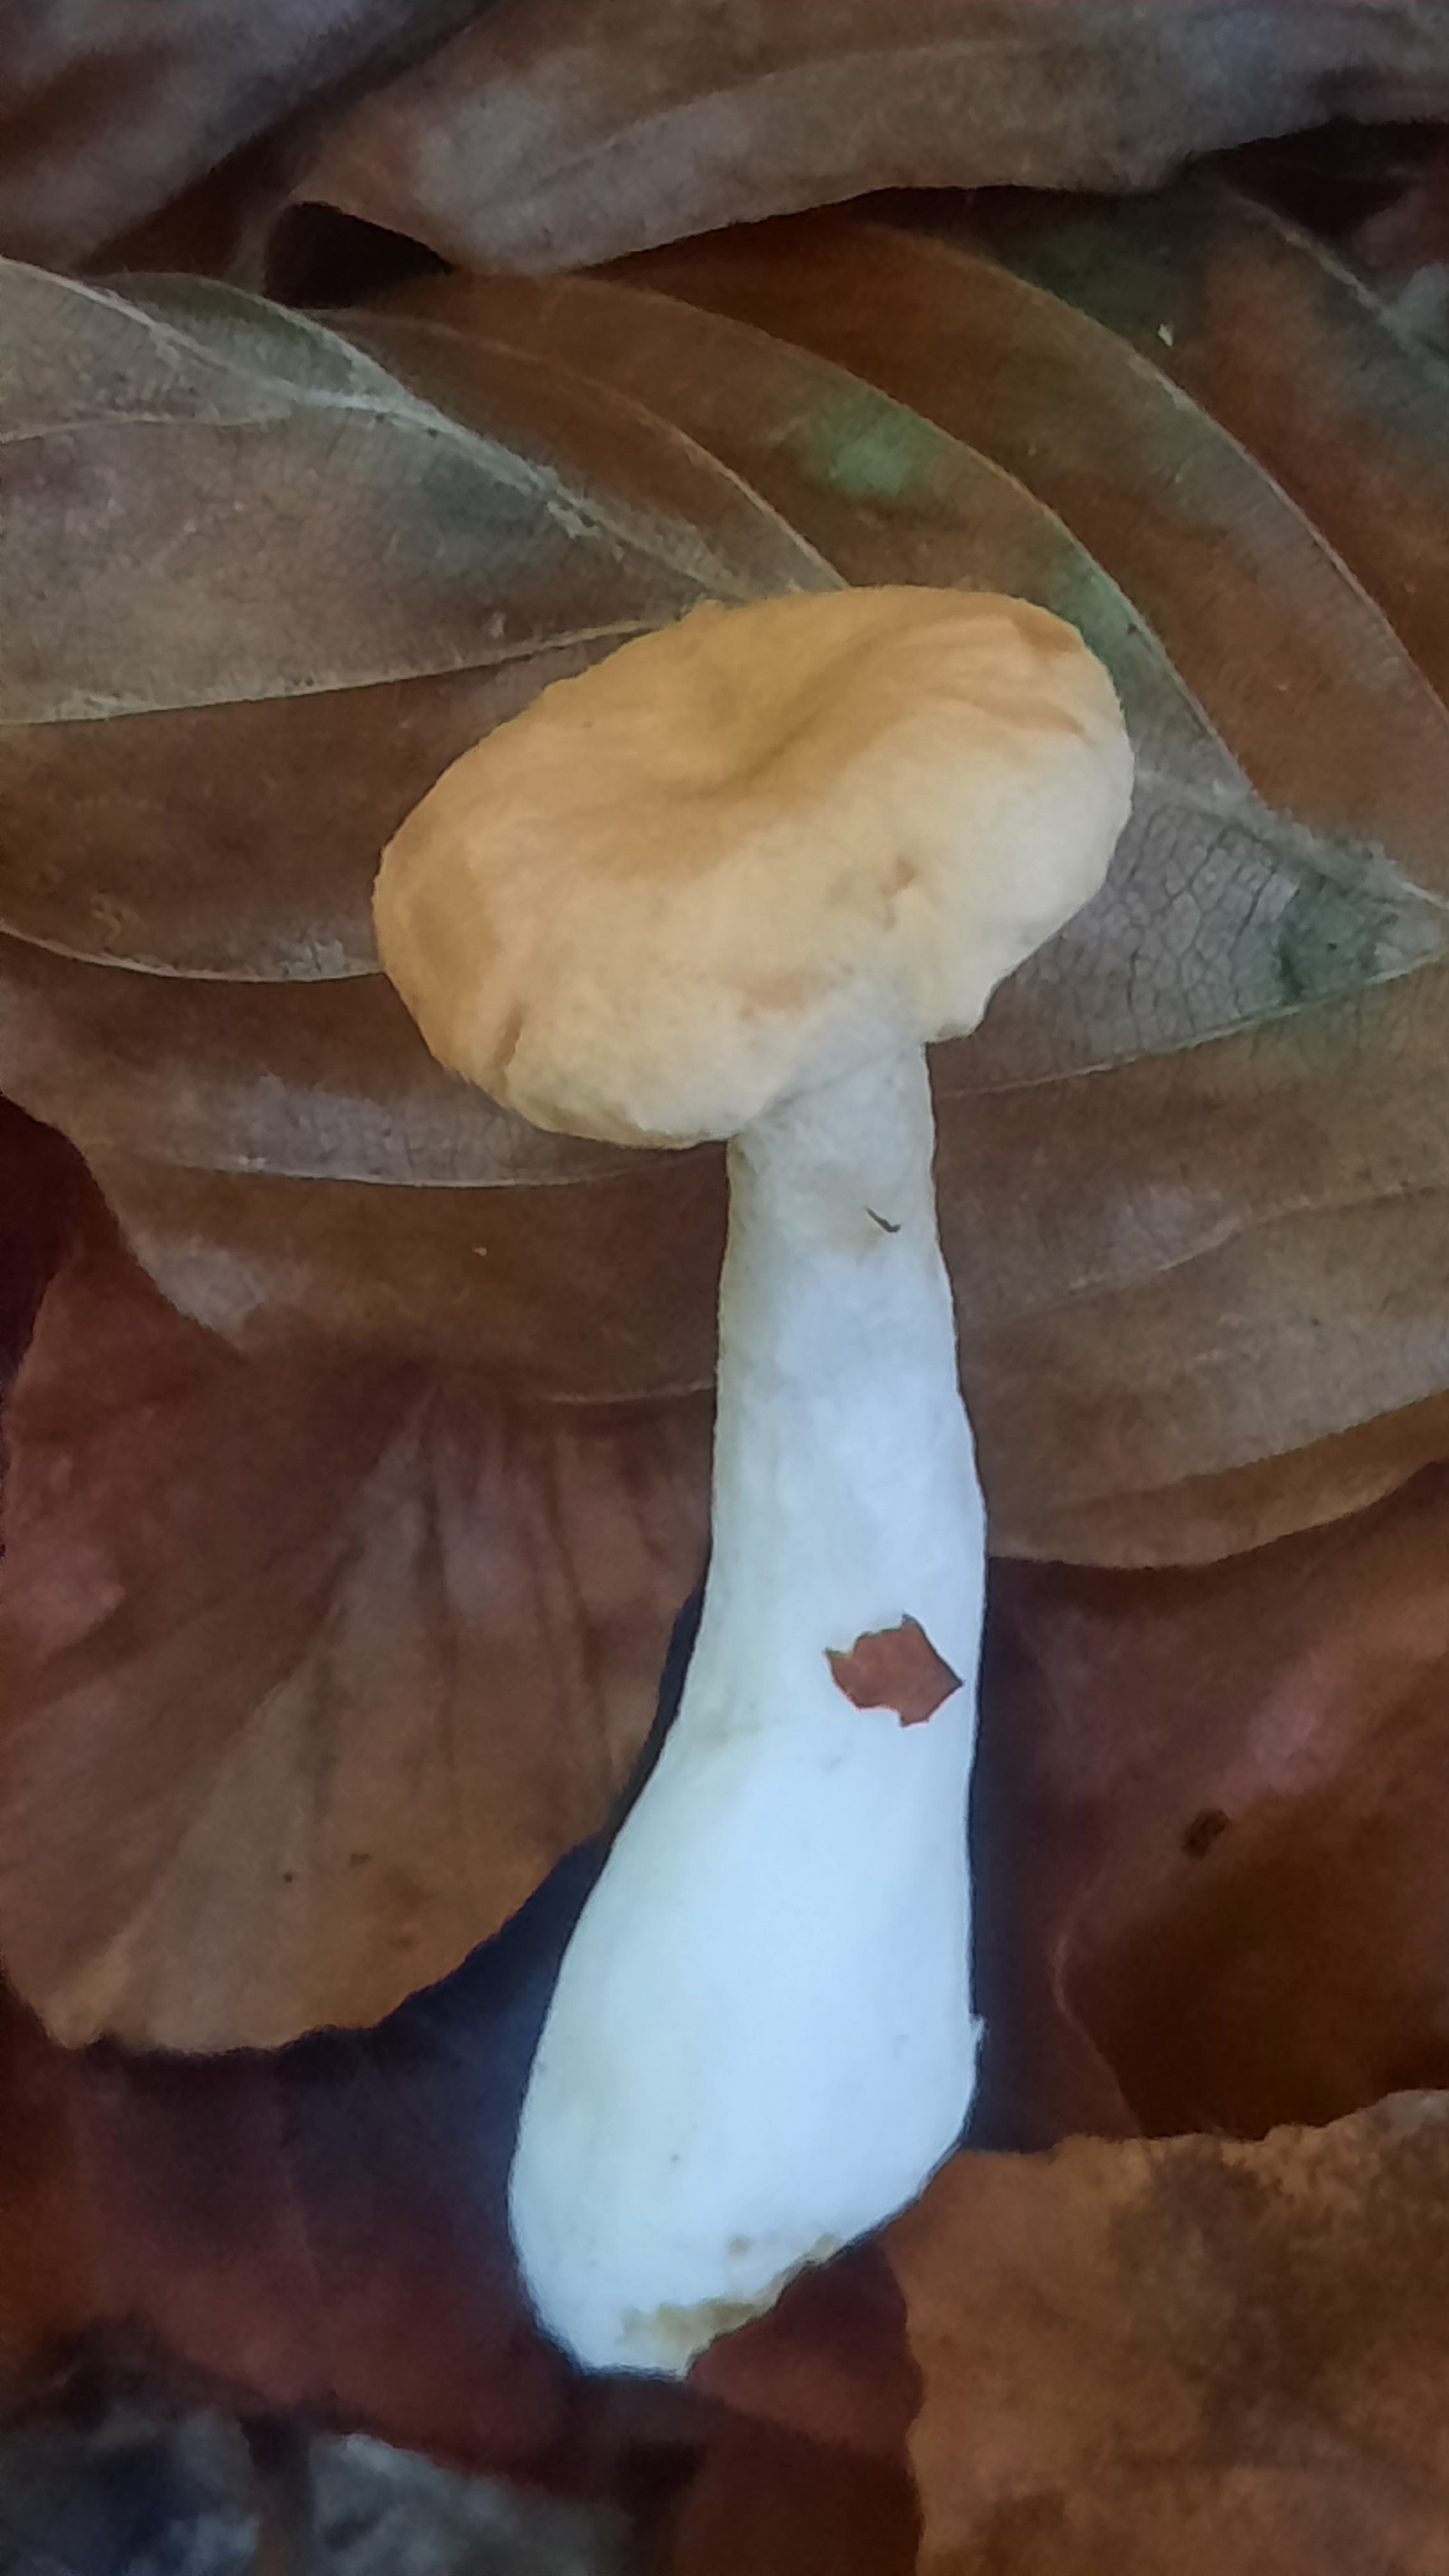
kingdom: Fungi
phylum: Basidiomycota
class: Agaricomycetes
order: Cantharellales
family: Hydnaceae
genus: Hydnum
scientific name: Hydnum umbilicatum
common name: navle-pigsvamp
